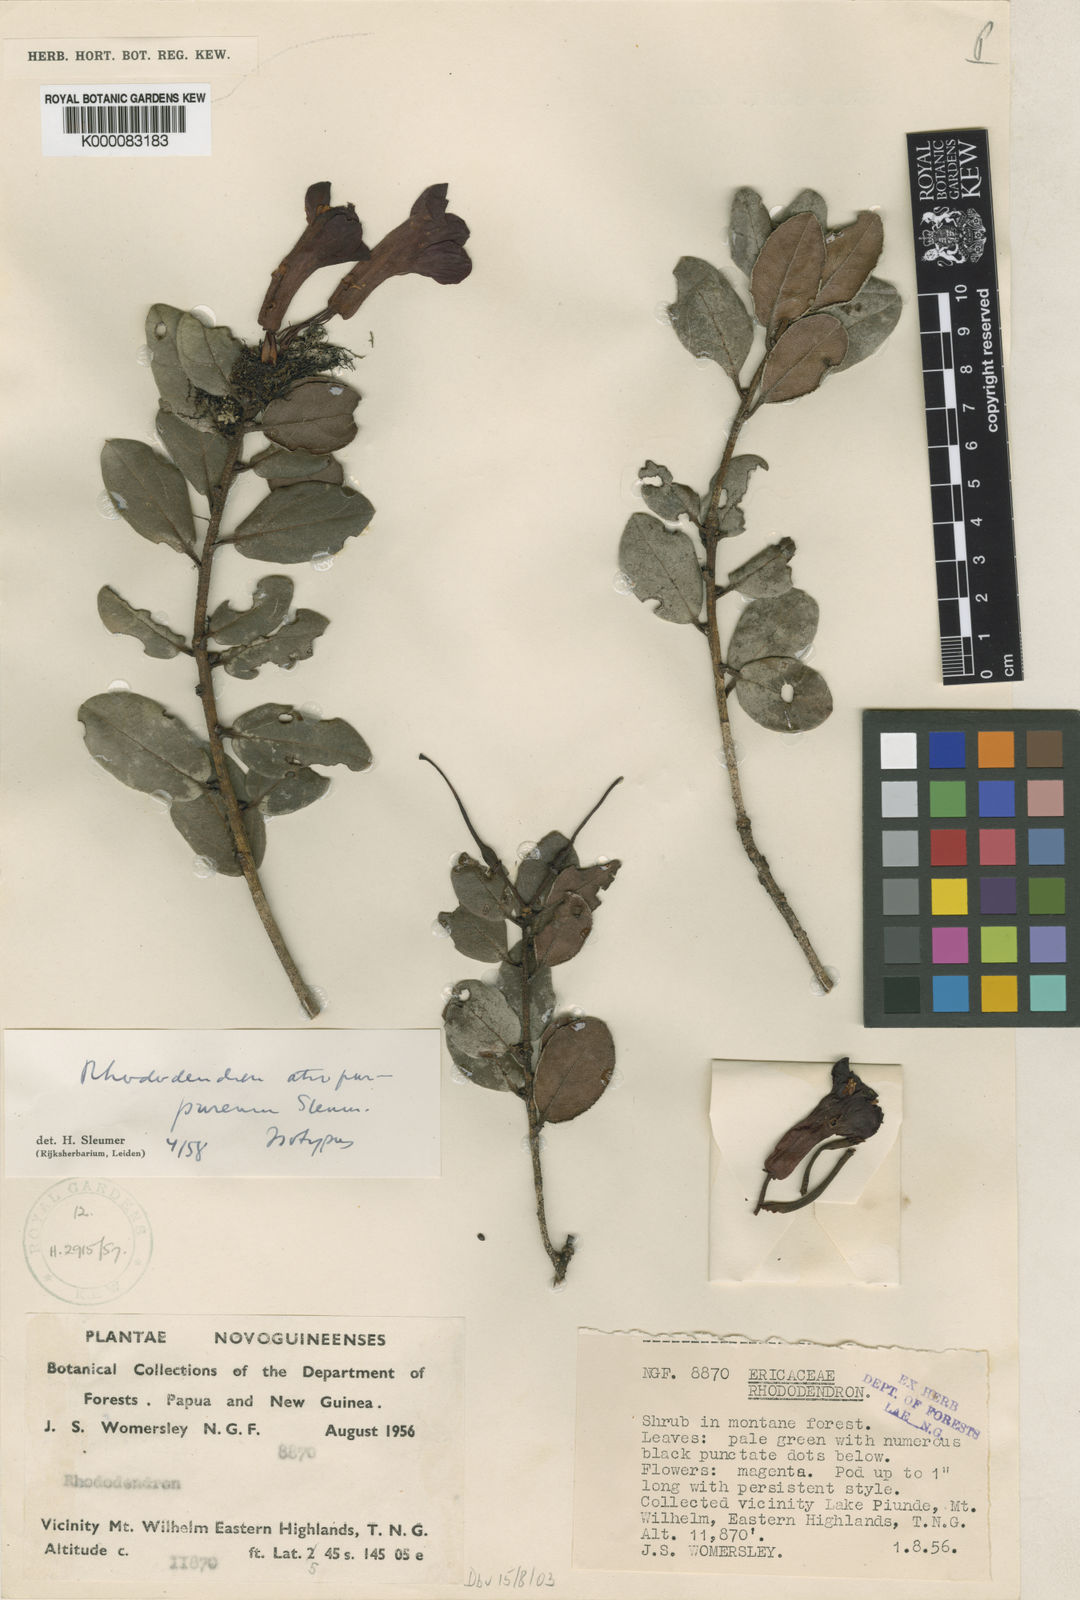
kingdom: Plantae
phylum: Tracheophyta
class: Magnoliopsida
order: Ericales
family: Ericaceae
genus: Rhododendron
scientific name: Rhododendron atropurpureum
